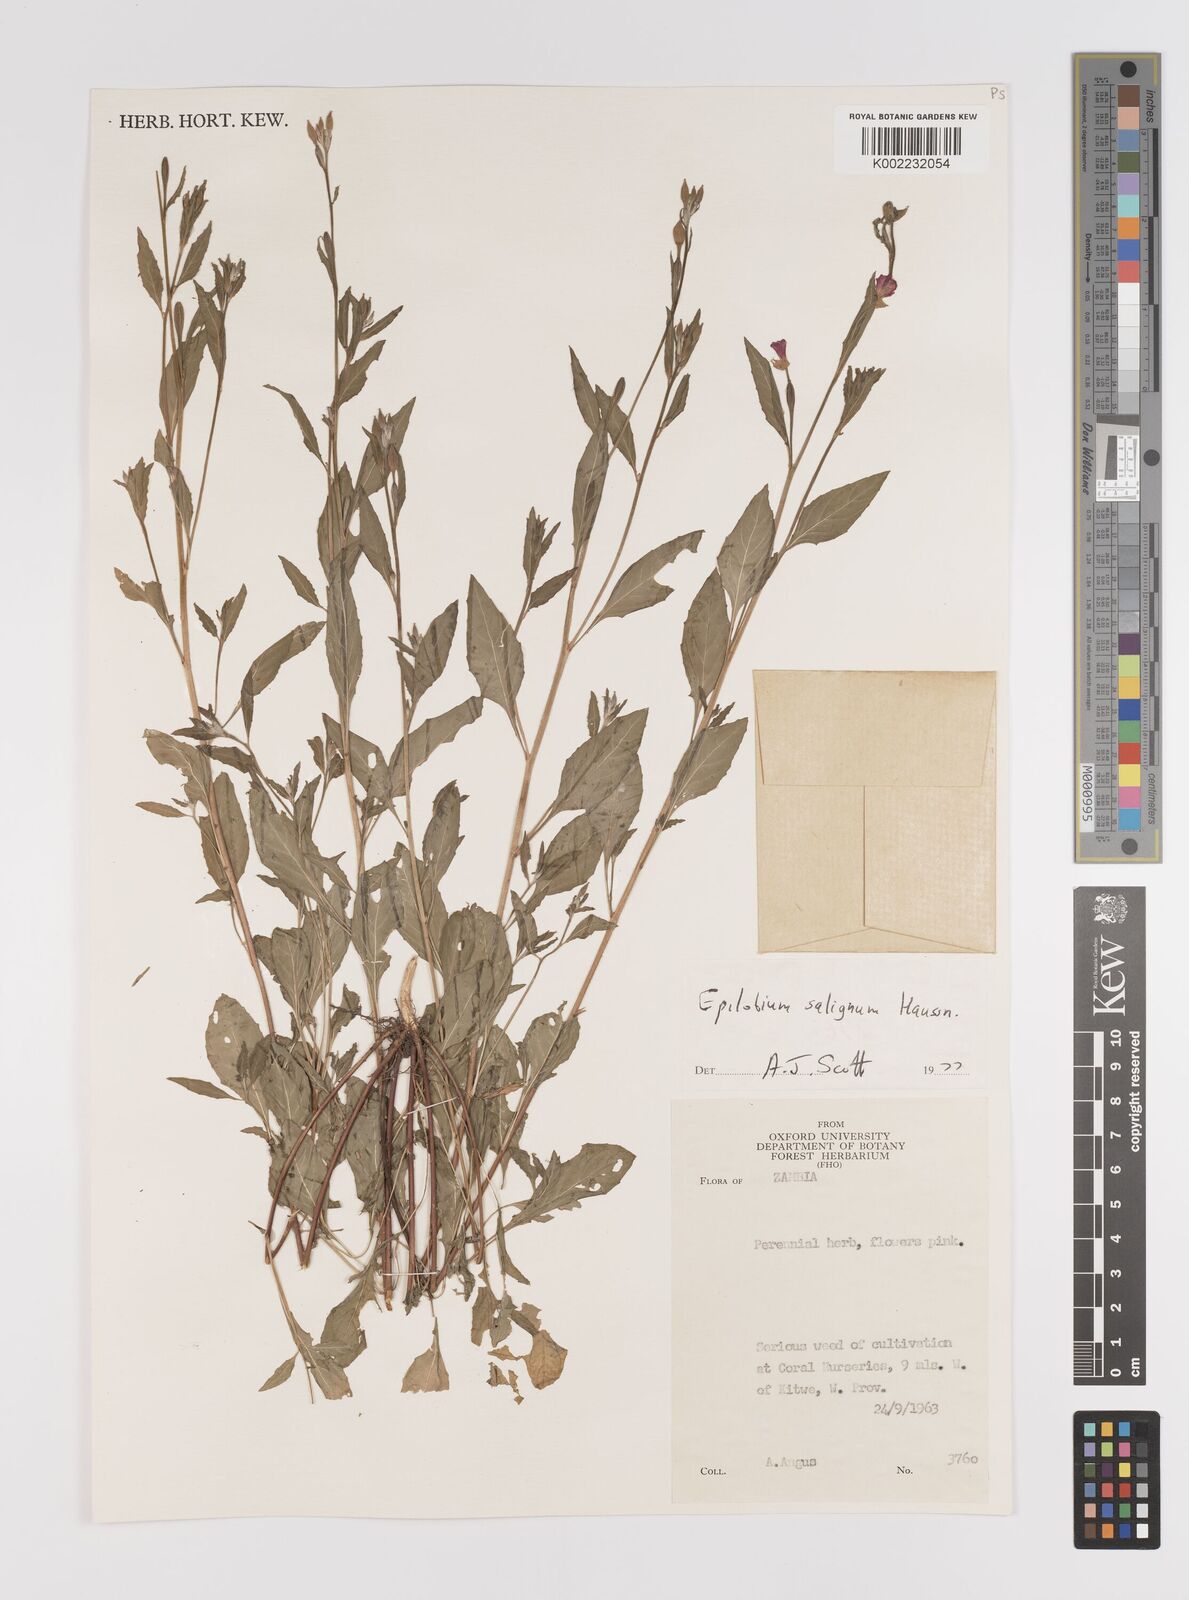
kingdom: Plantae
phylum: Tracheophyta
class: Magnoliopsida
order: Myrtales
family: Onagraceae
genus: Epilobium
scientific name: Epilobium salignum
